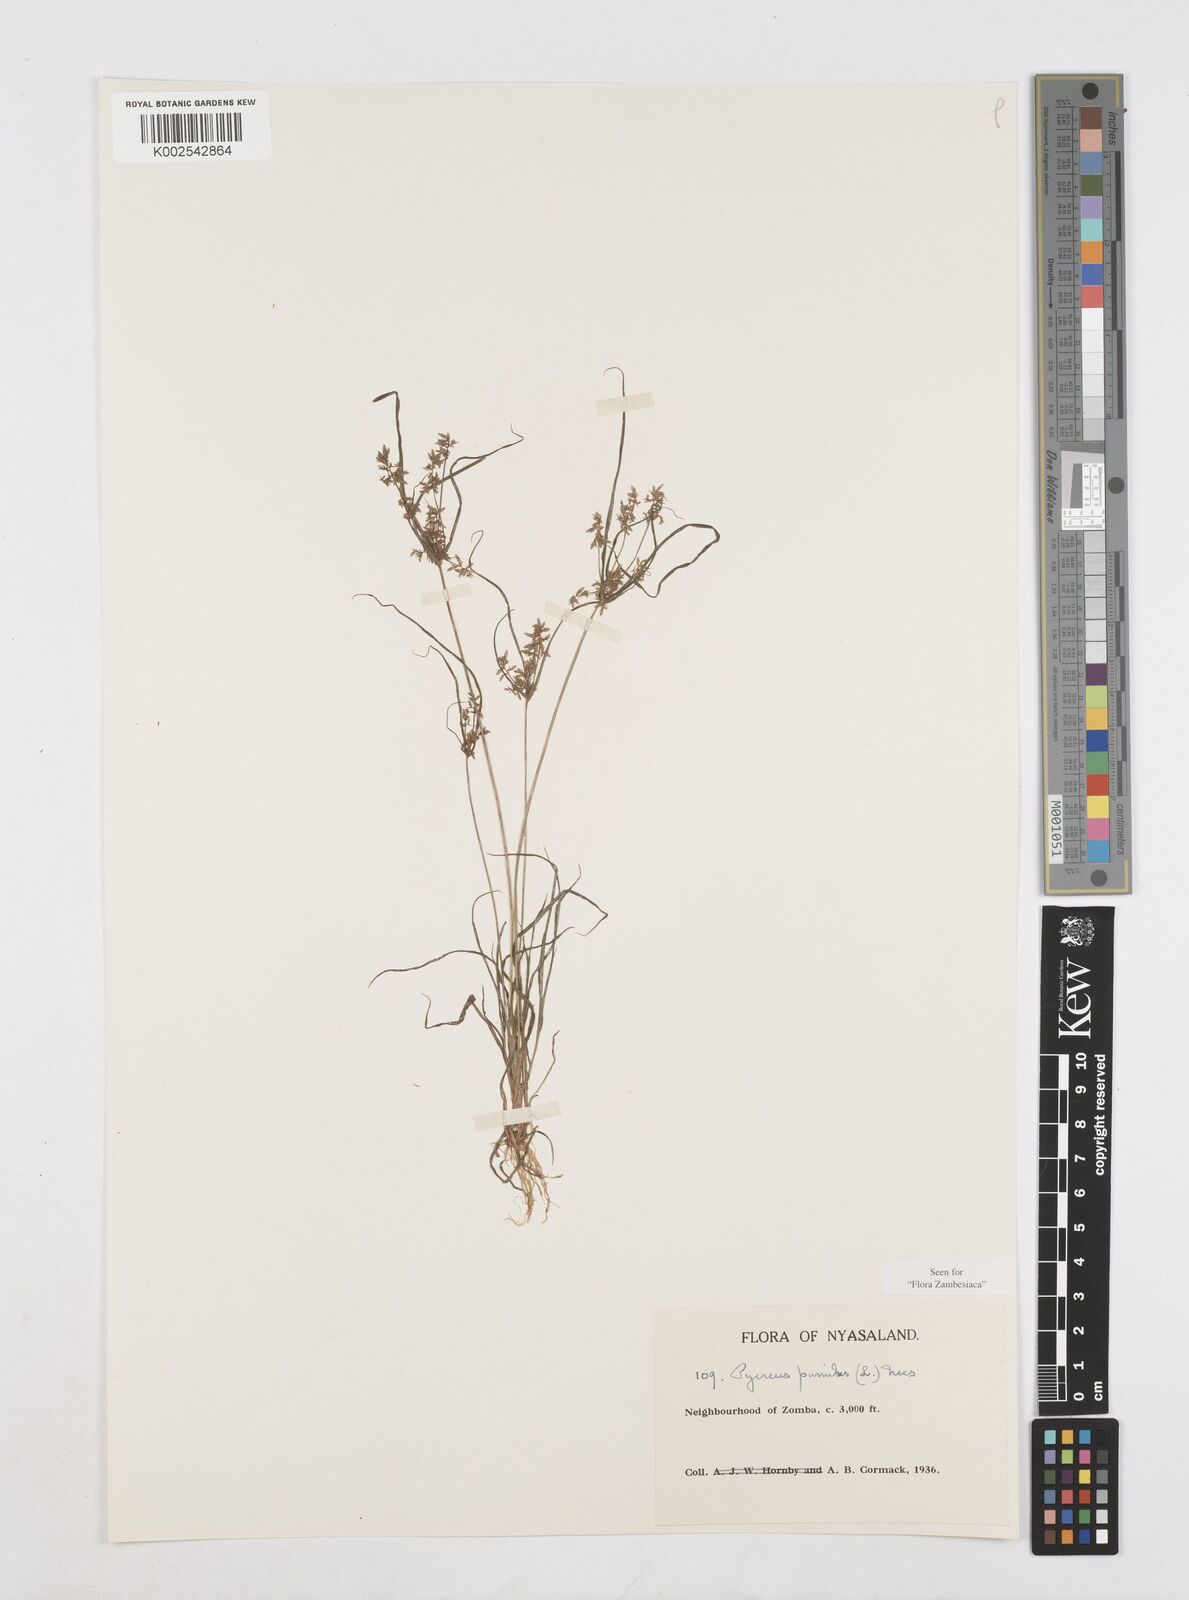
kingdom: Plantae
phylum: Tracheophyta
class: Liliopsida
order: Poales
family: Cyperaceae
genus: Cyperus
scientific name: Cyperus pumilus
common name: Low flatsedge
